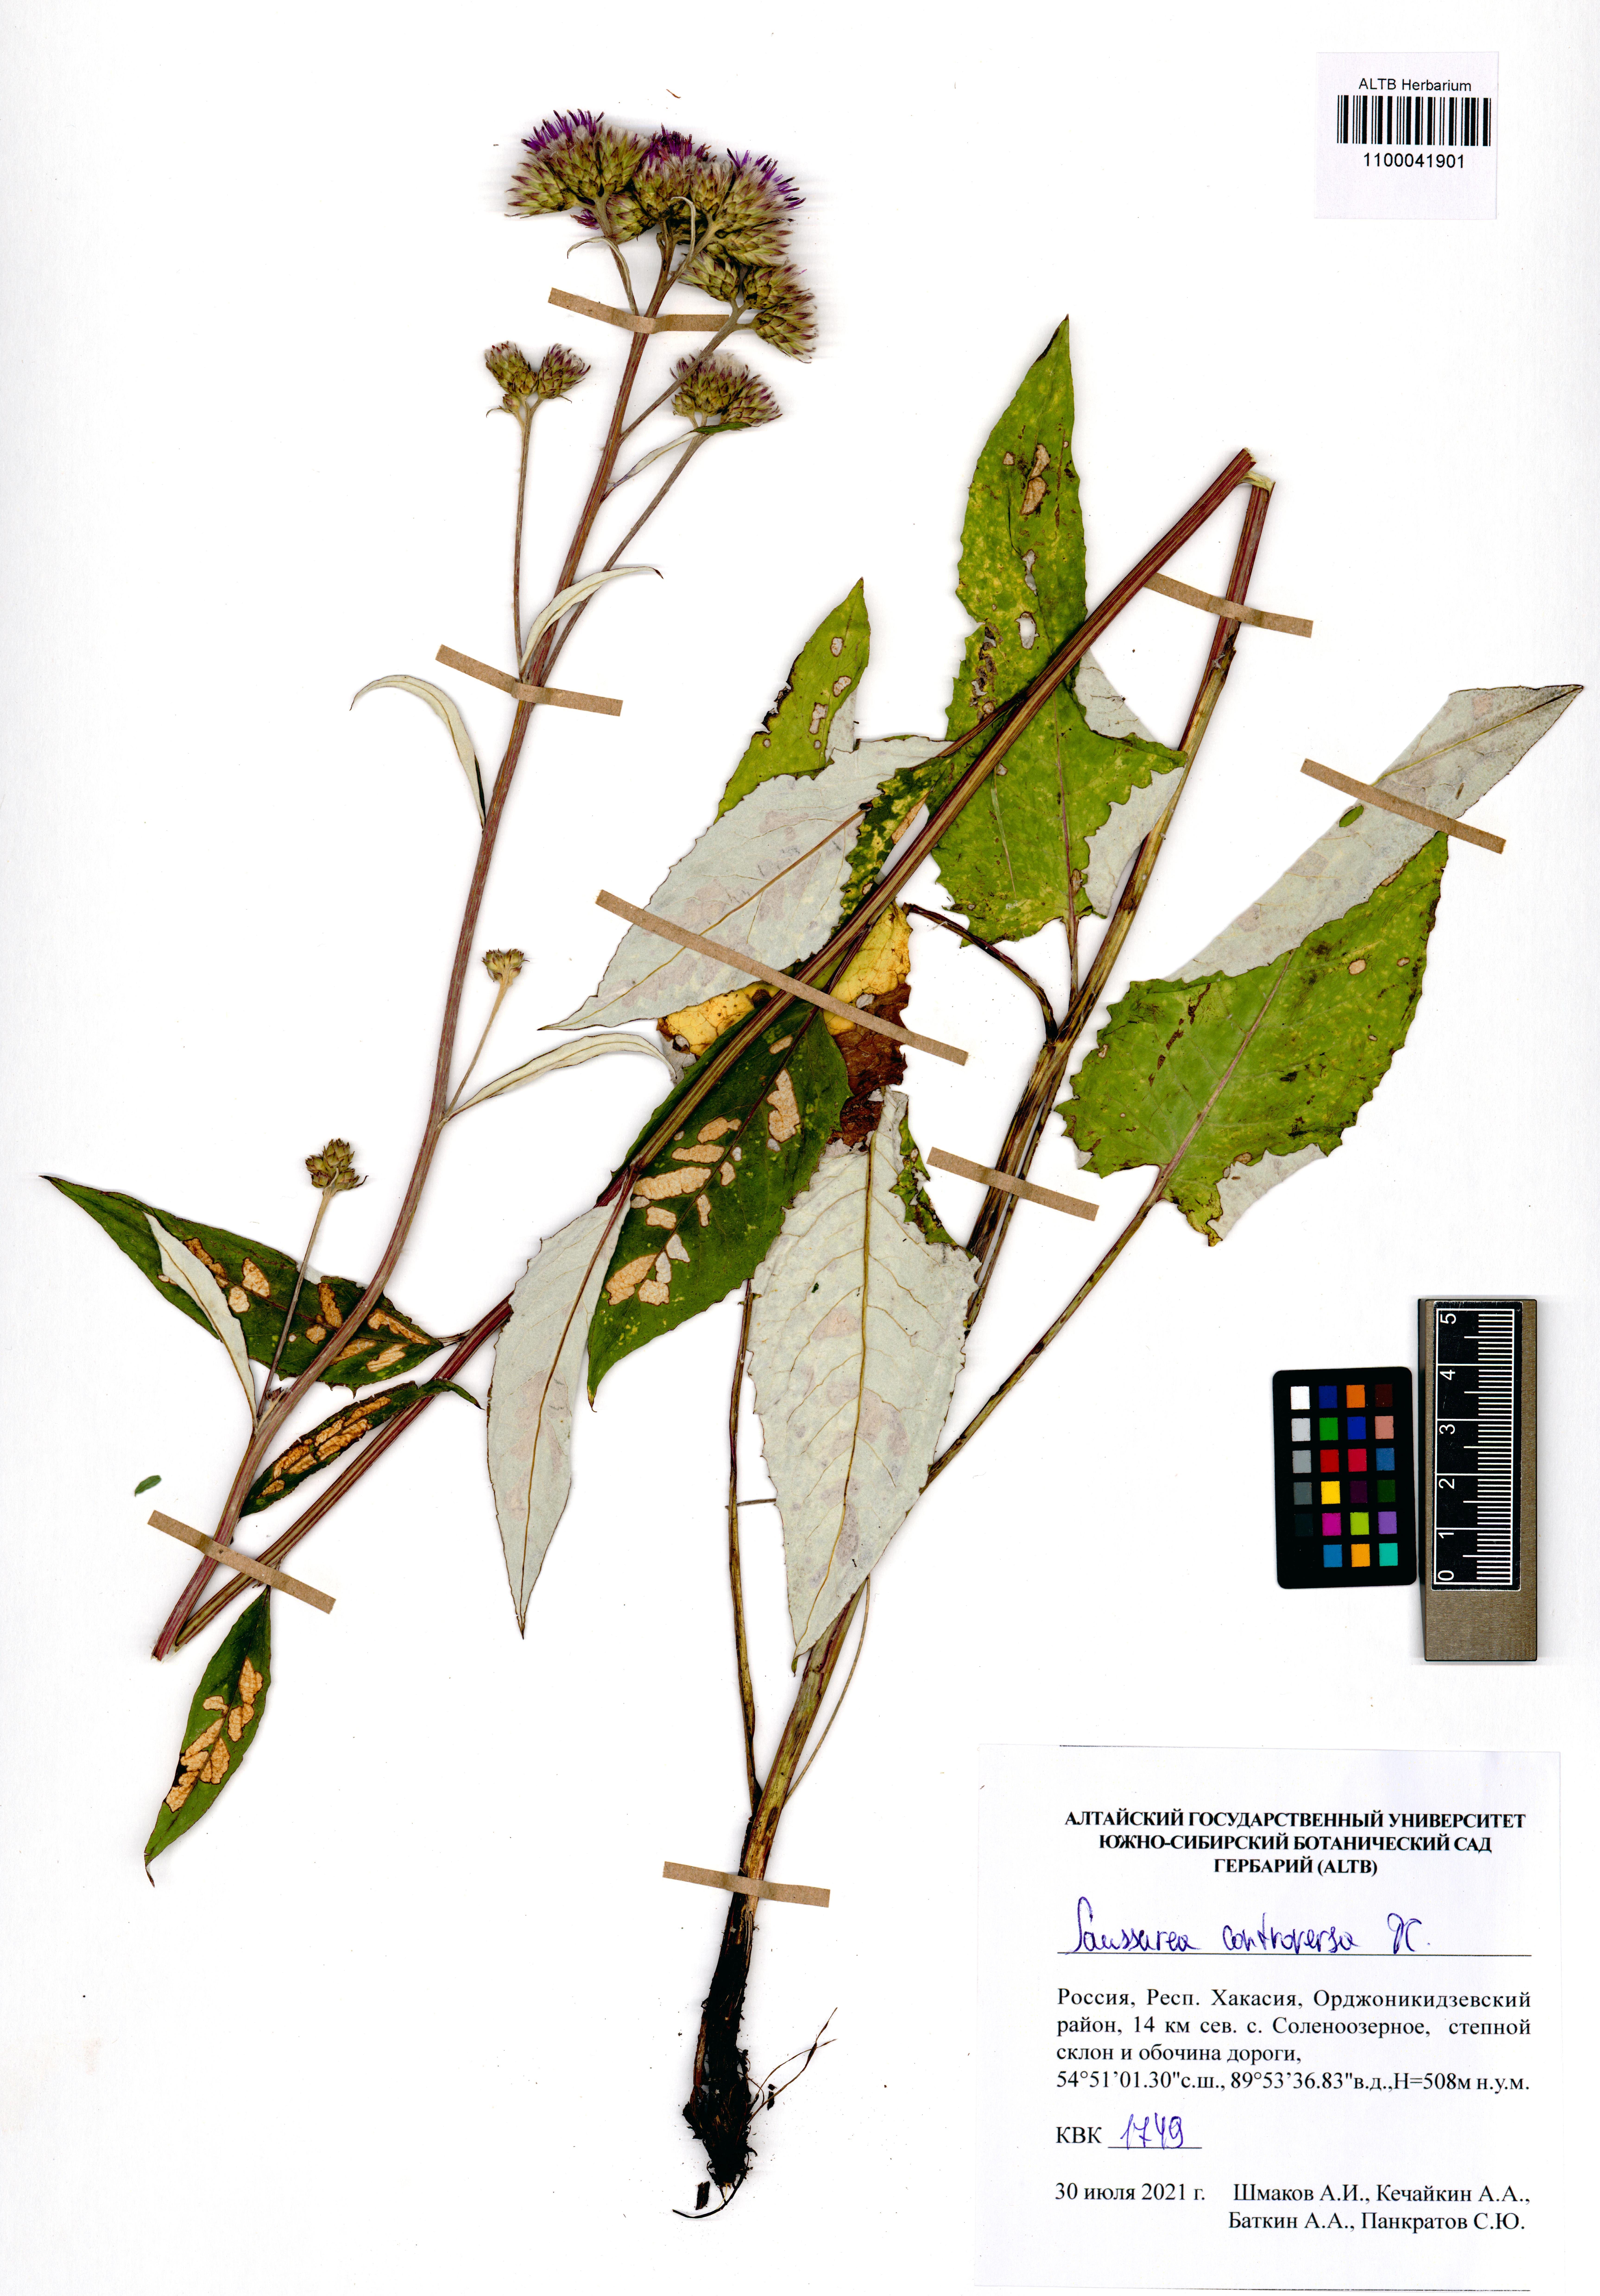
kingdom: Plantae
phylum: Tracheophyta
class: Magnoliopsida
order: Asterales
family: Asteraceae
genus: Saussurea
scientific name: Saussurea controversa
